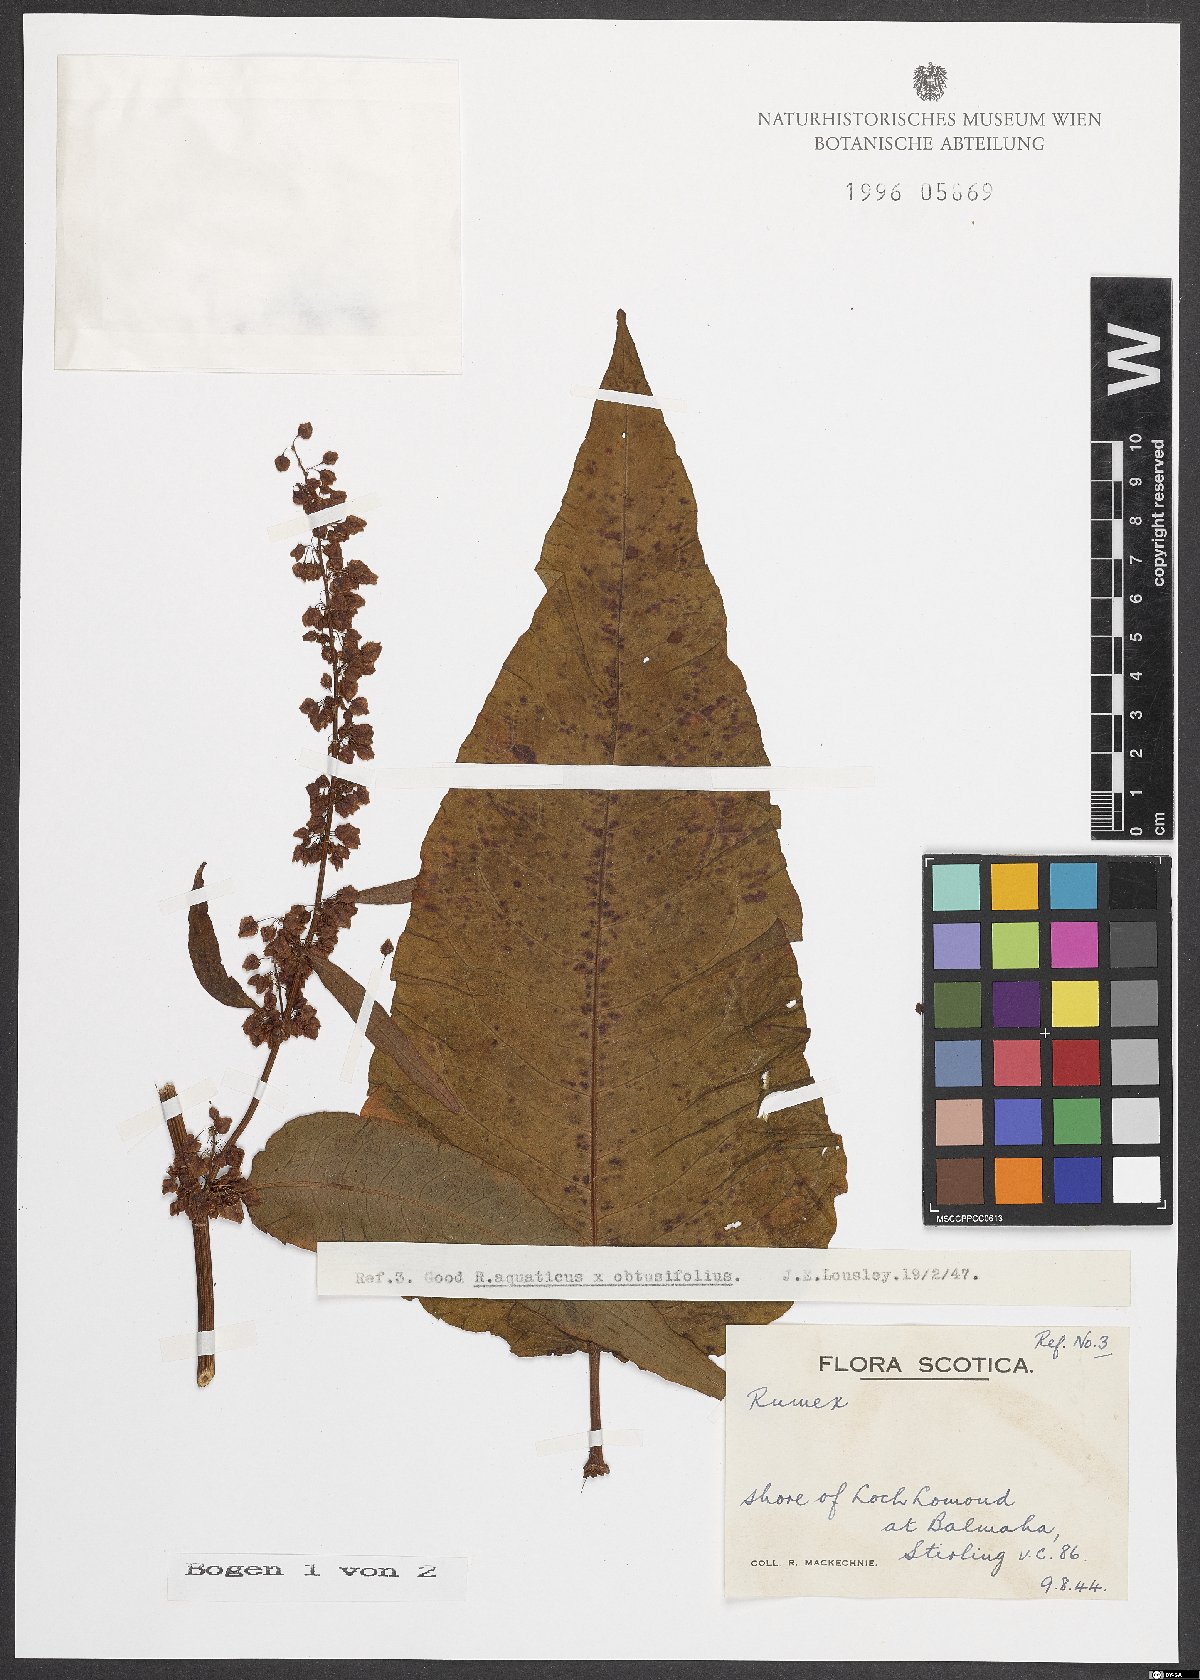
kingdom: Plantae
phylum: Tracheophyta
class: Magnoliopsida
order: Caryophyllales
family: Polygonaceae
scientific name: Polygonaceae
